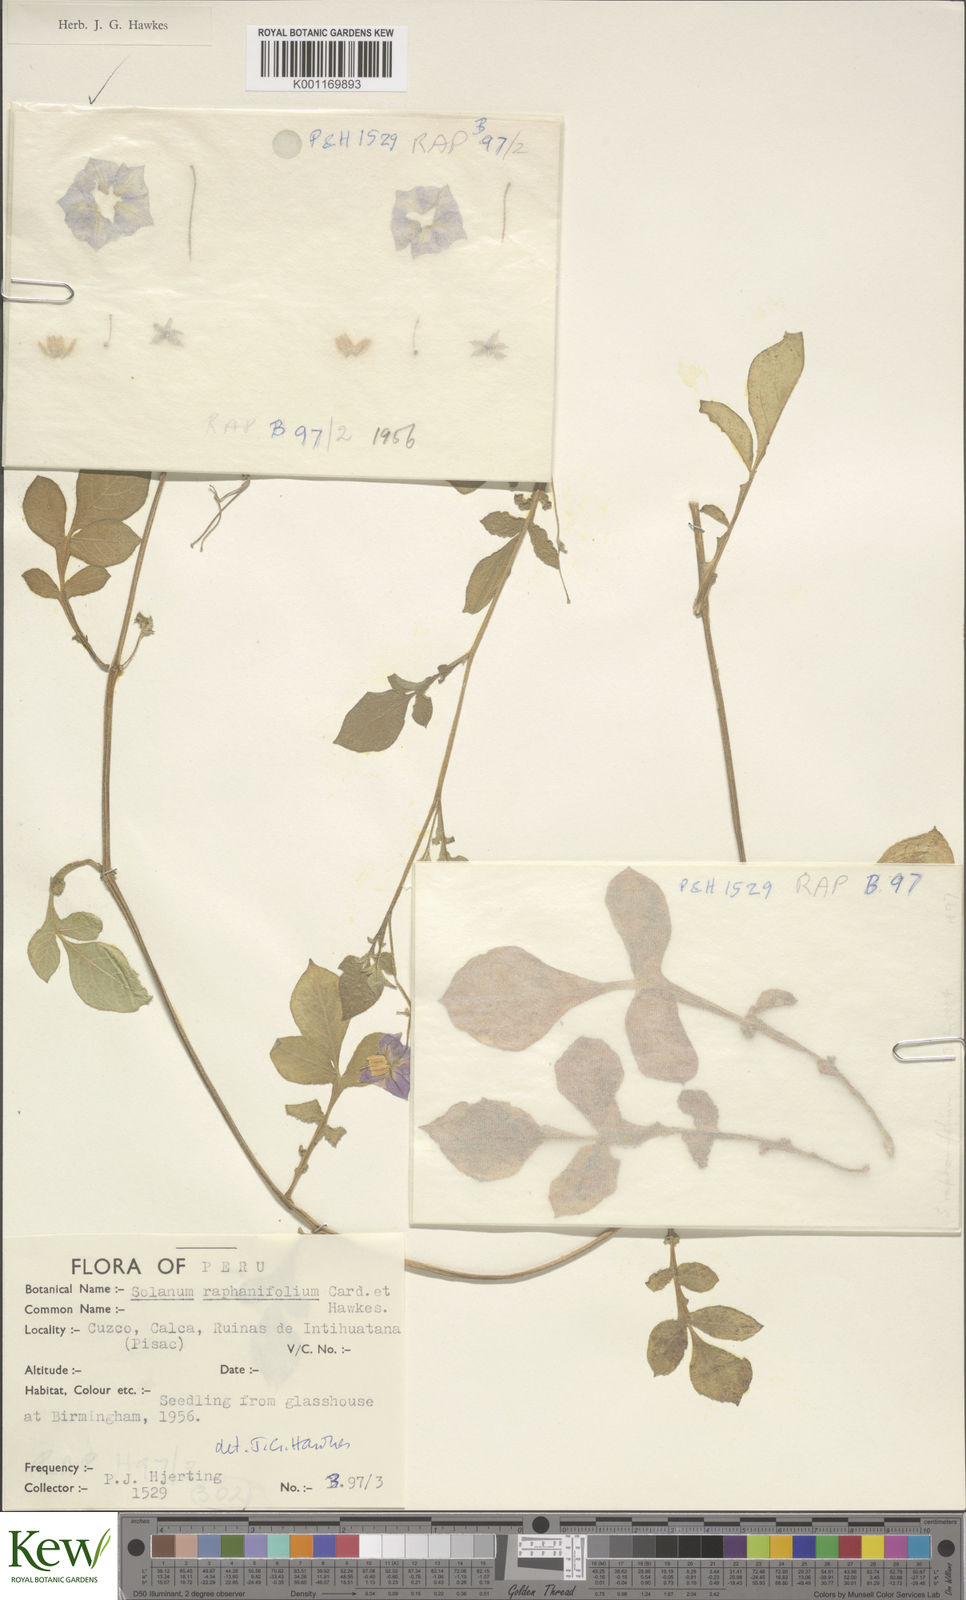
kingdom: Plantae
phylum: Tracheophyta
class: Magnoliopsida
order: Solanales
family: Solanaceae
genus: Solanum
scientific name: Solanum
